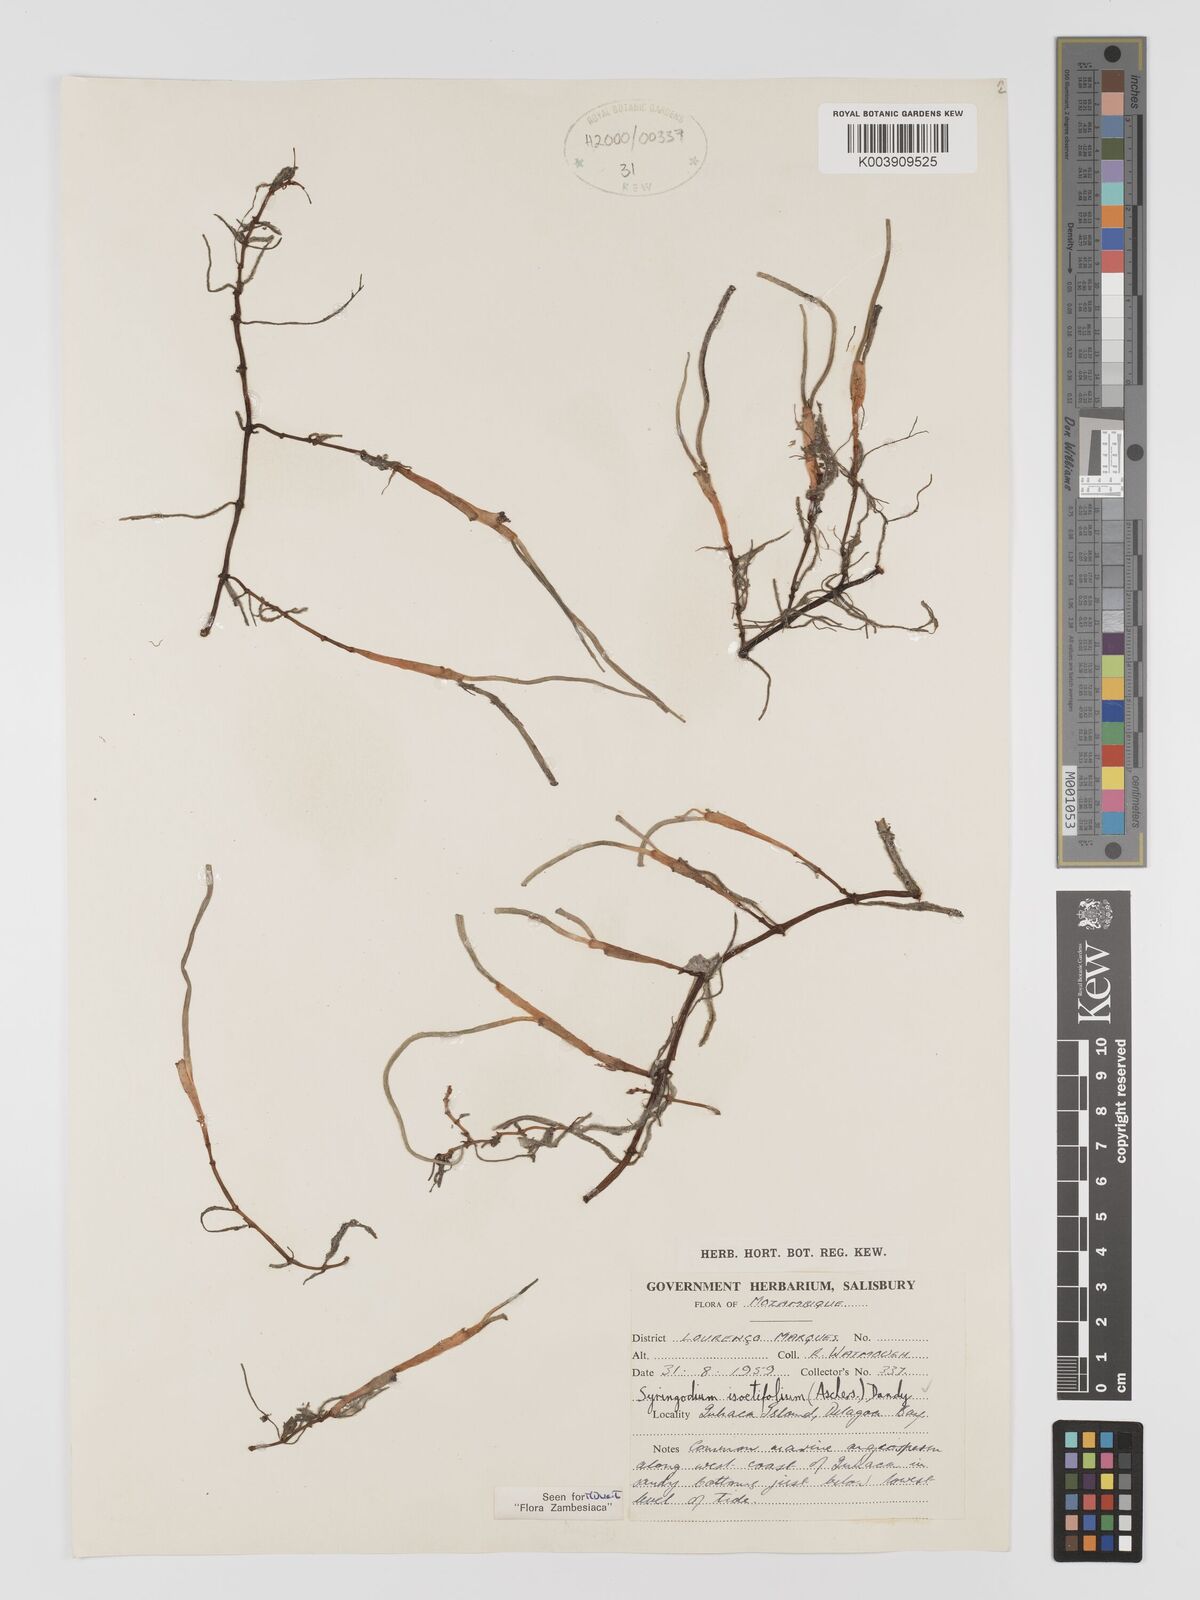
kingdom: Plantae
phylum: Tracheophyta
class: Liliopsida
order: Alismatales
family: Cymodoceaceae
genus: Syringodium
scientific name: Syringodium isoetifolium
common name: Species code: si
